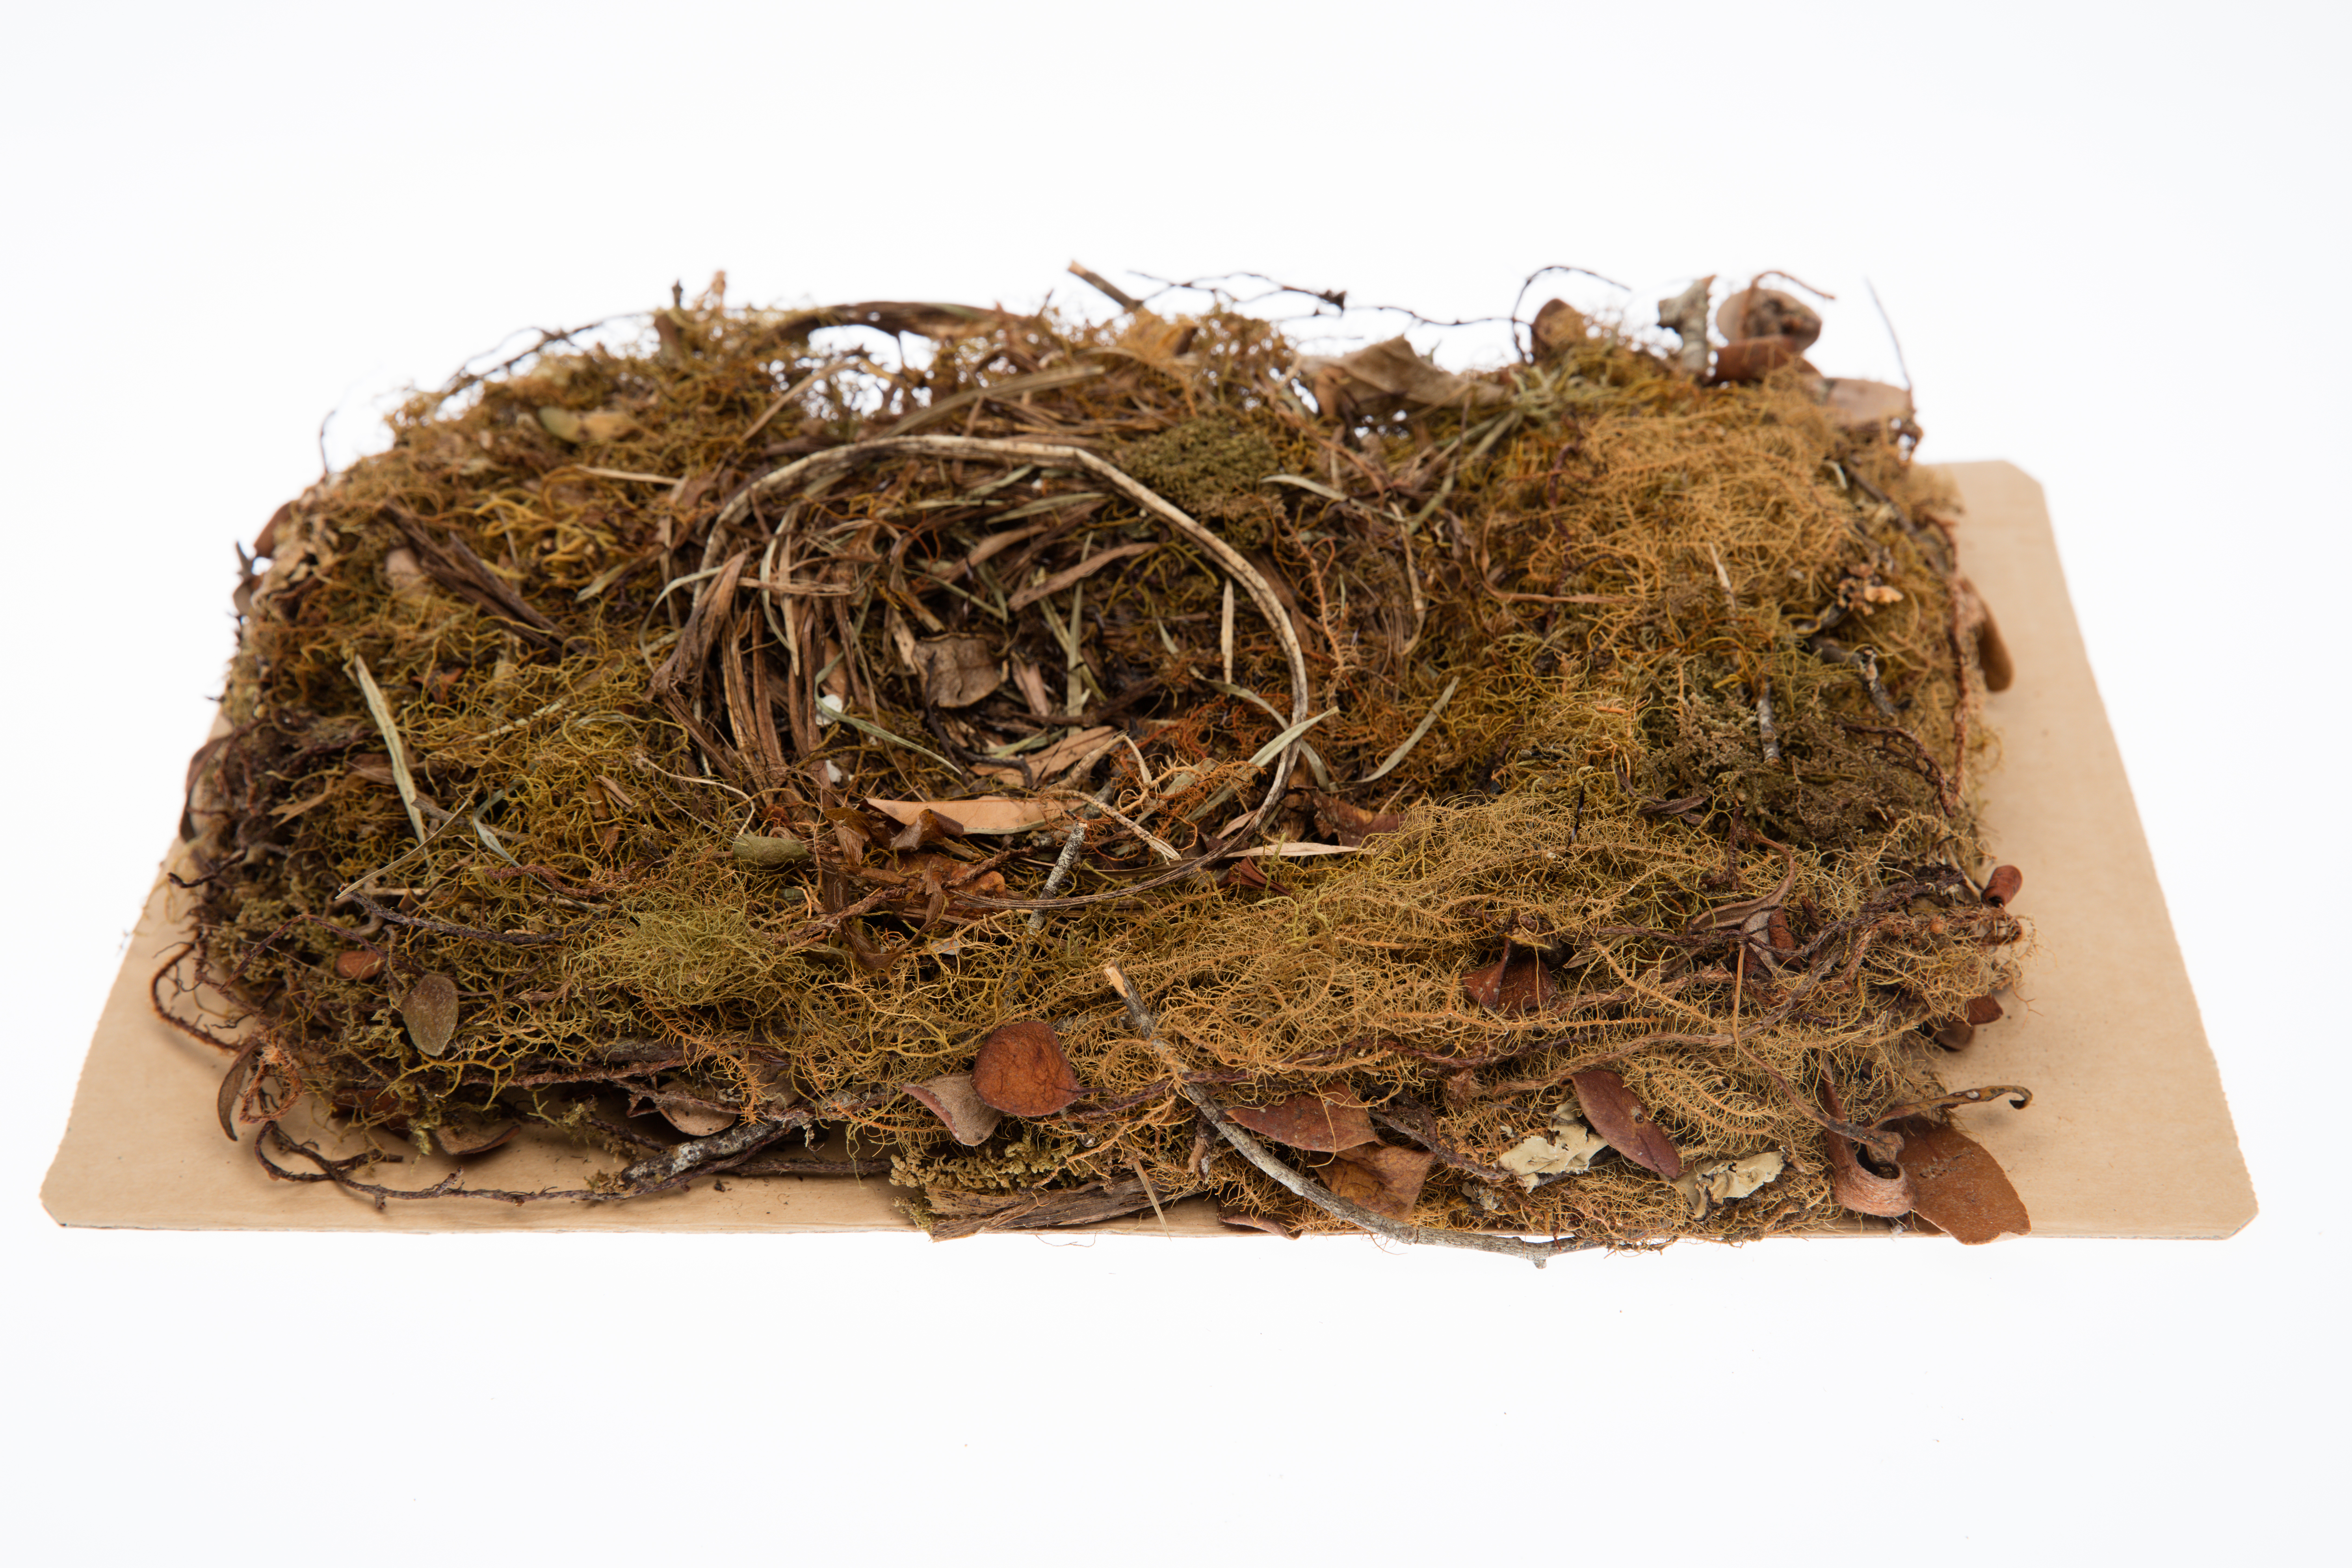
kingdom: Animalia
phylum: Chordata
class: Aves
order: Passeriformes
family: Callaeatidae
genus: Callaeas
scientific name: Callaeas cinereus
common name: South island kokako
